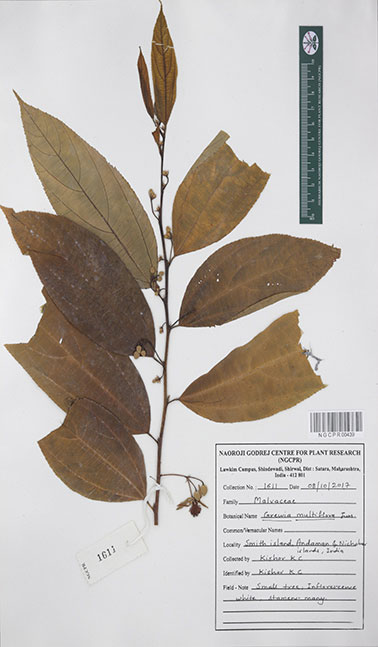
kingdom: Plantae
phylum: Tracheophyta
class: Magnoliopsida
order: Malvales
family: Malvaceae
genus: Grewia
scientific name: Grewia multiflora
